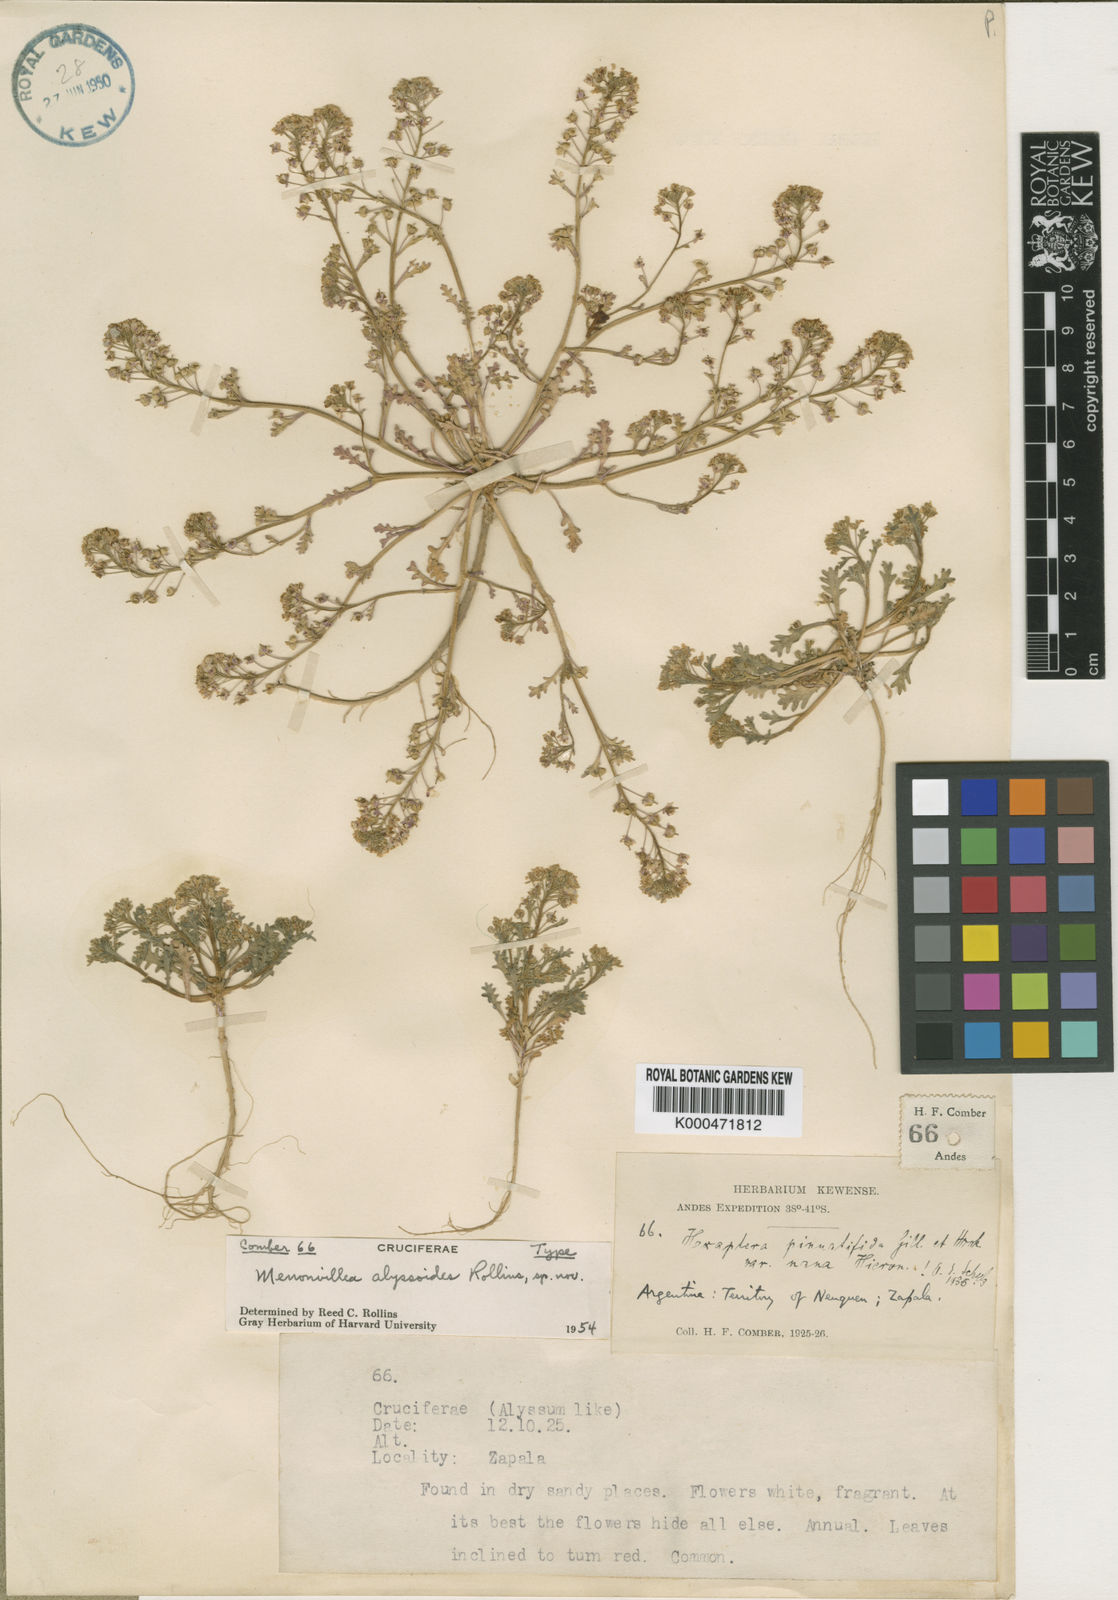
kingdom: Plantae
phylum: Tracheophyta
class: Magnoliopsida
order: Brassicales
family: Brassicaceae
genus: Menonvillea
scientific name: Menonvillea patagonica
